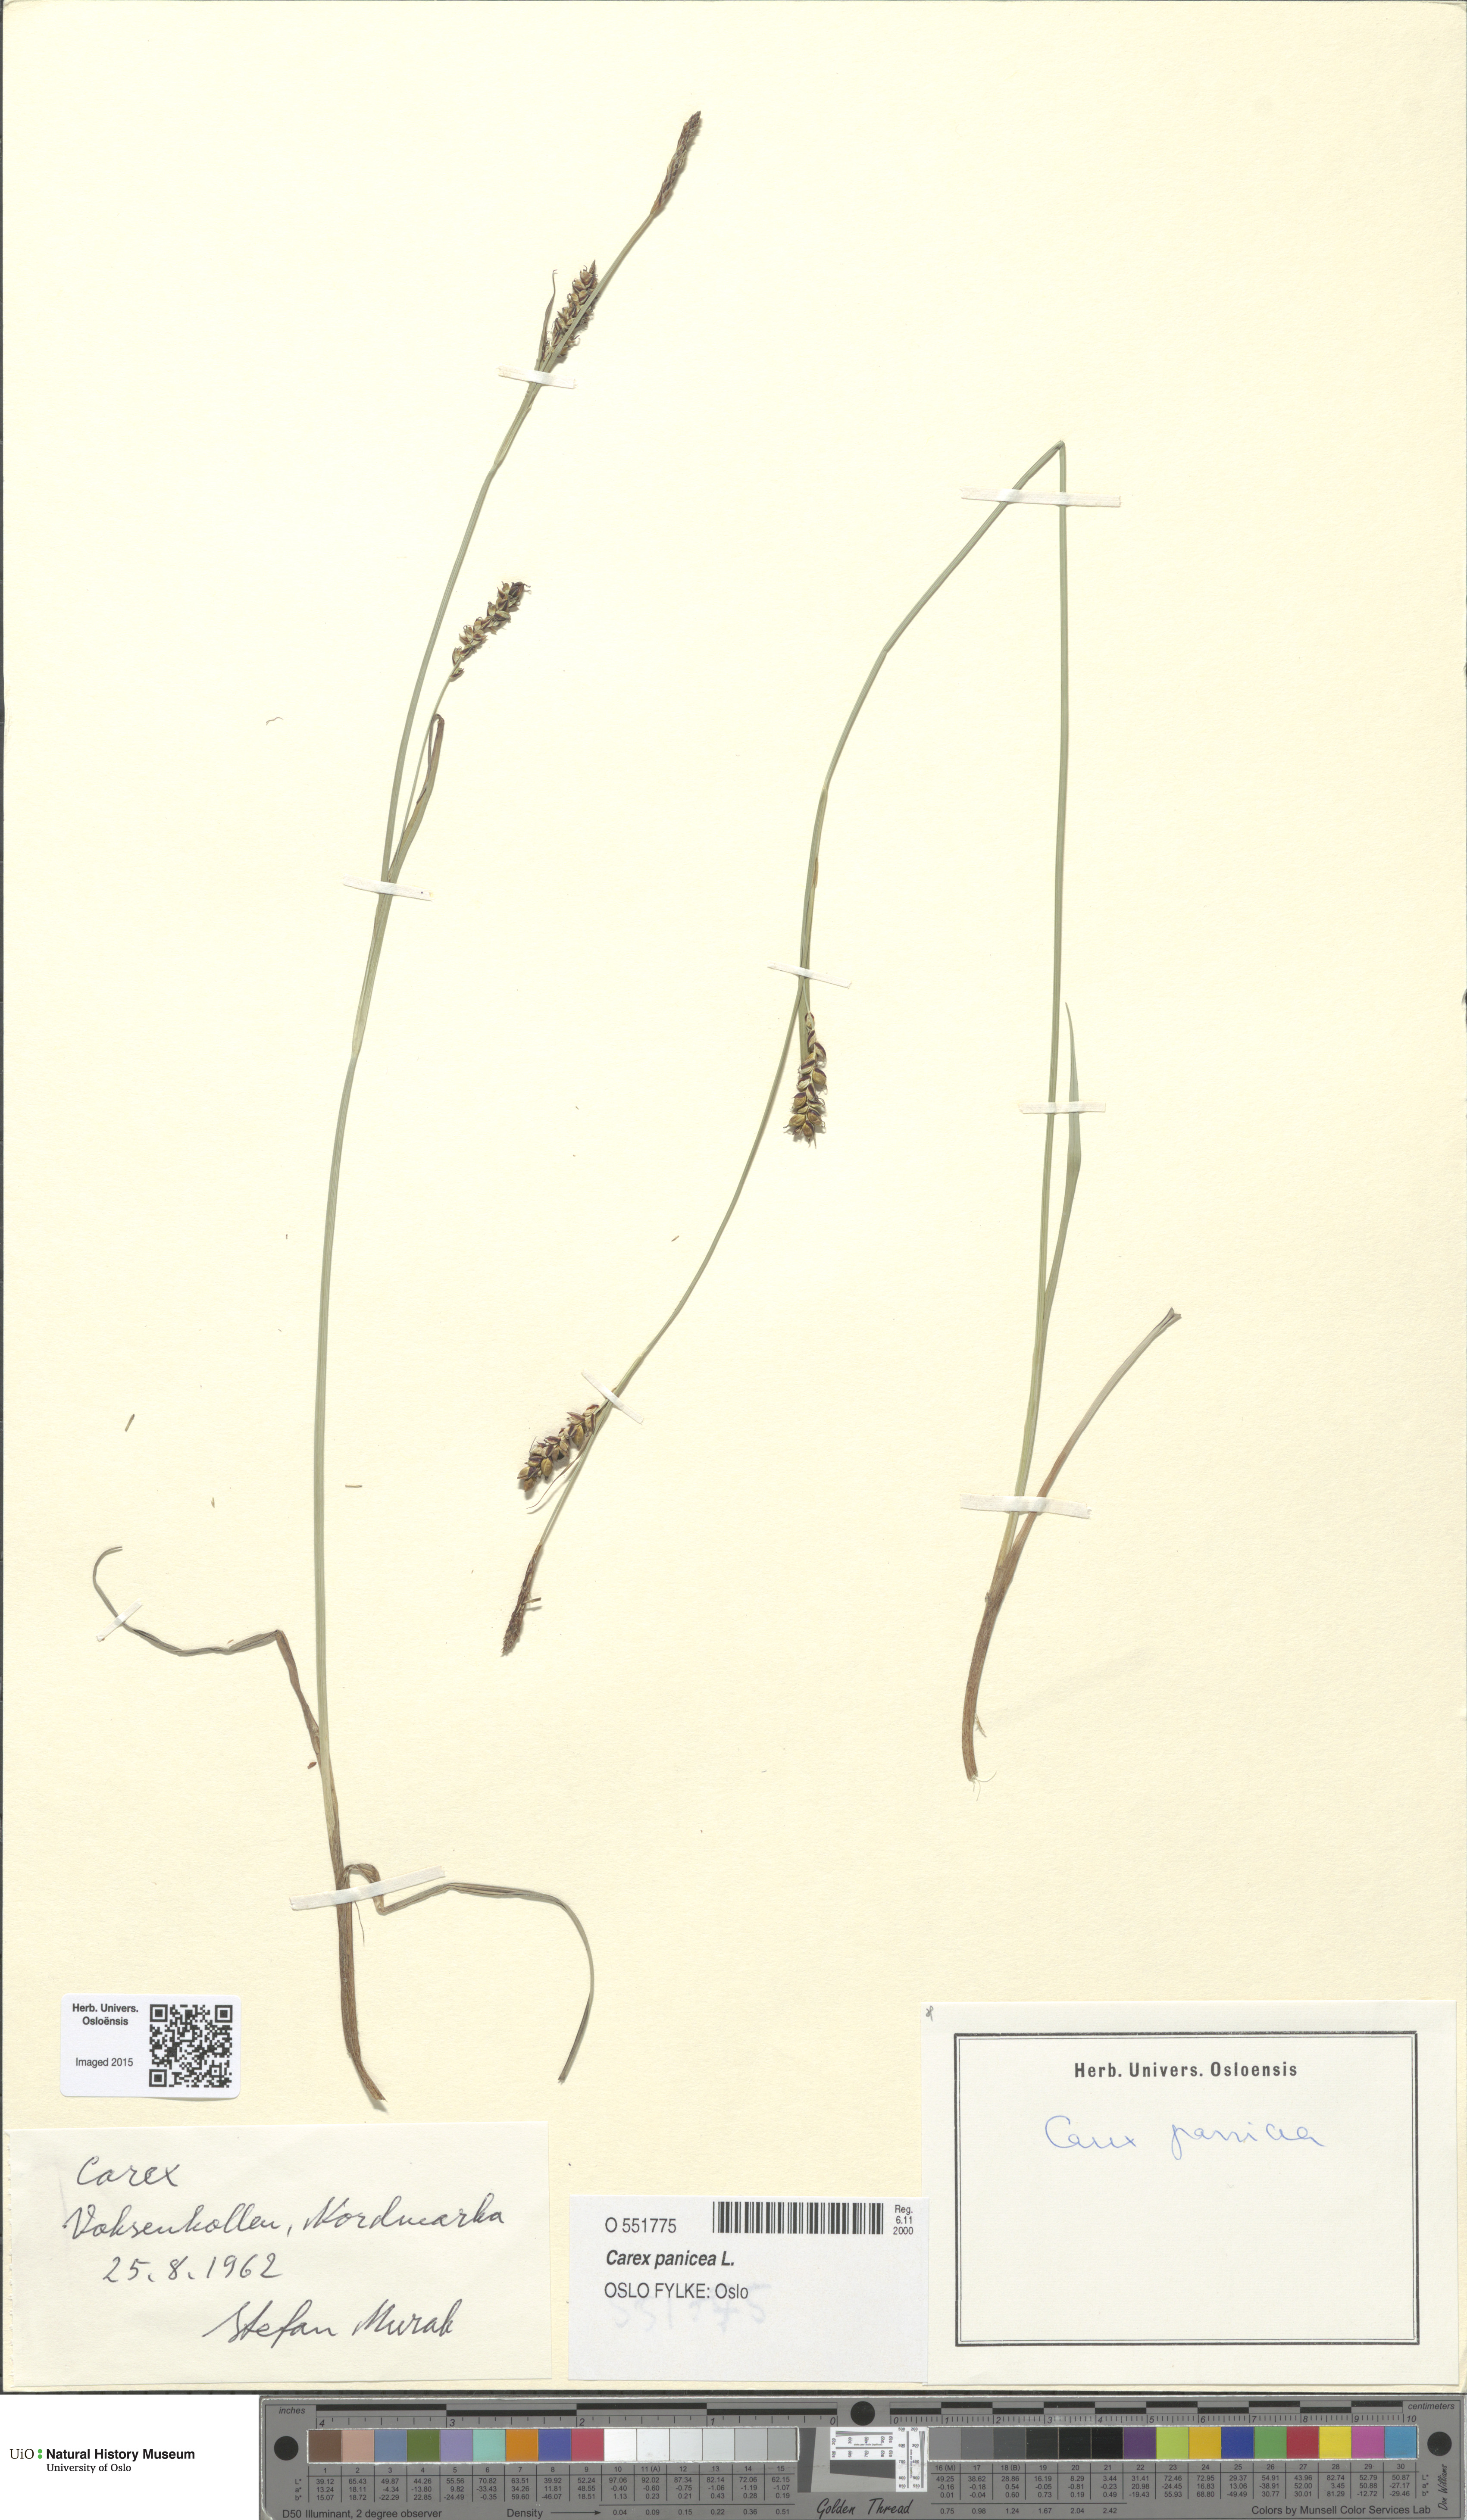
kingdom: Plantae
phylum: Tracheophyta
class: Liliopsida
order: Poales
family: Cyperaceae
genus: Carex
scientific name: Carex panicea
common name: Carnation sedge
